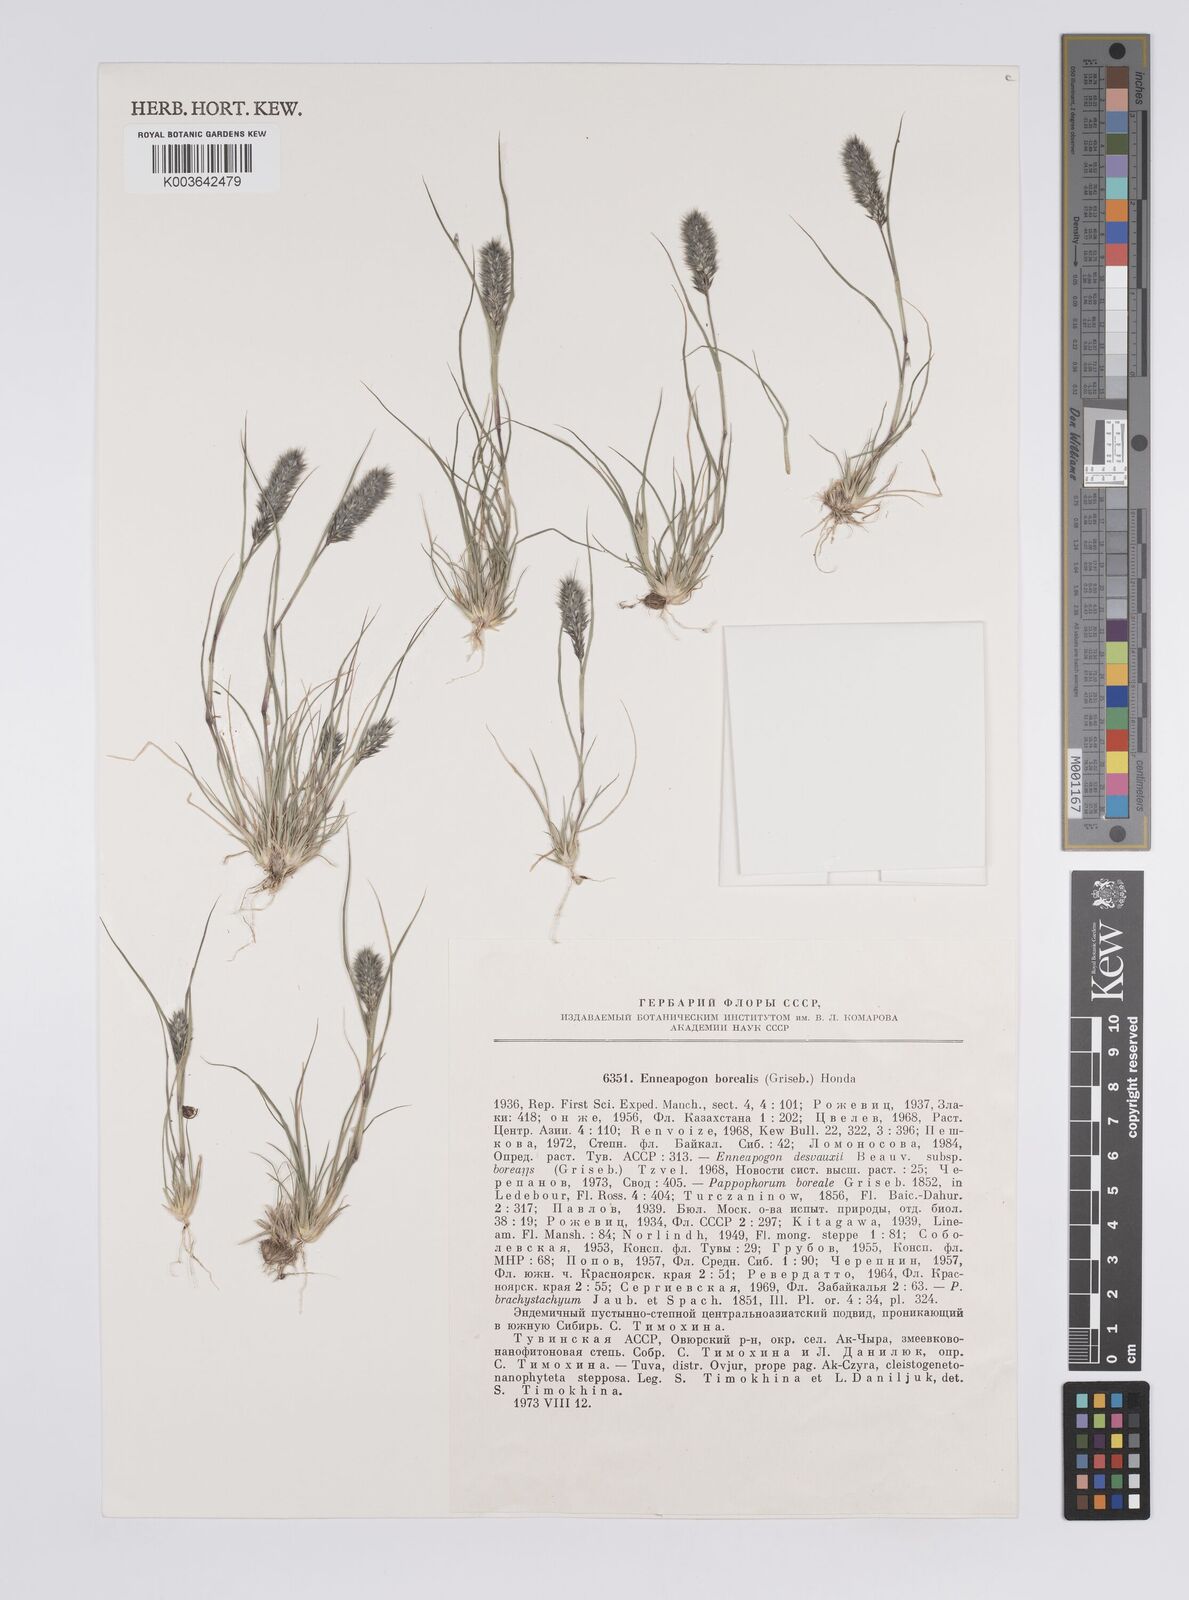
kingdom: Plantae
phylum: Tracheophyta
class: Liliopsida
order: Poales
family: Poaceae
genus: Enneapogon
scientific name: Enneapogon desvauxii
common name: Feather pappus grass
